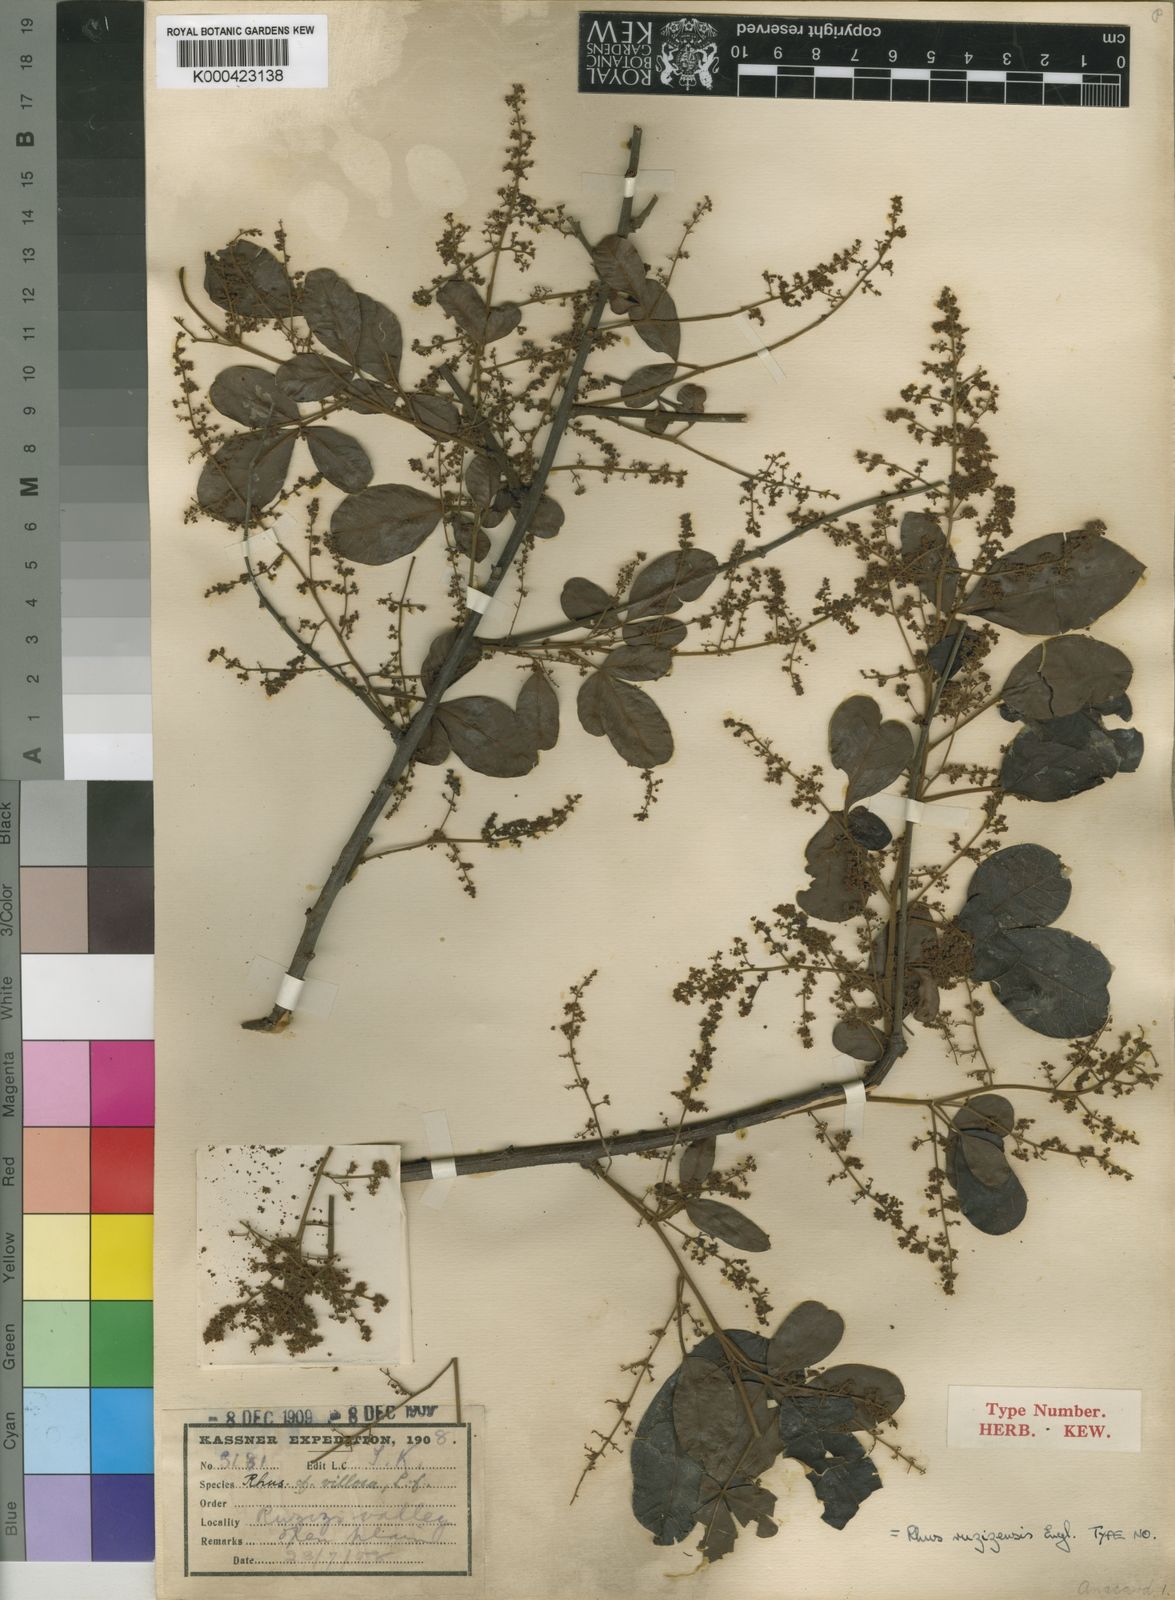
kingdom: Plantae
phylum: Tracheophyta
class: Magnoliopsida
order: Sapindales
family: Anacardiaceae
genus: Searsia
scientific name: Searsia longipes
